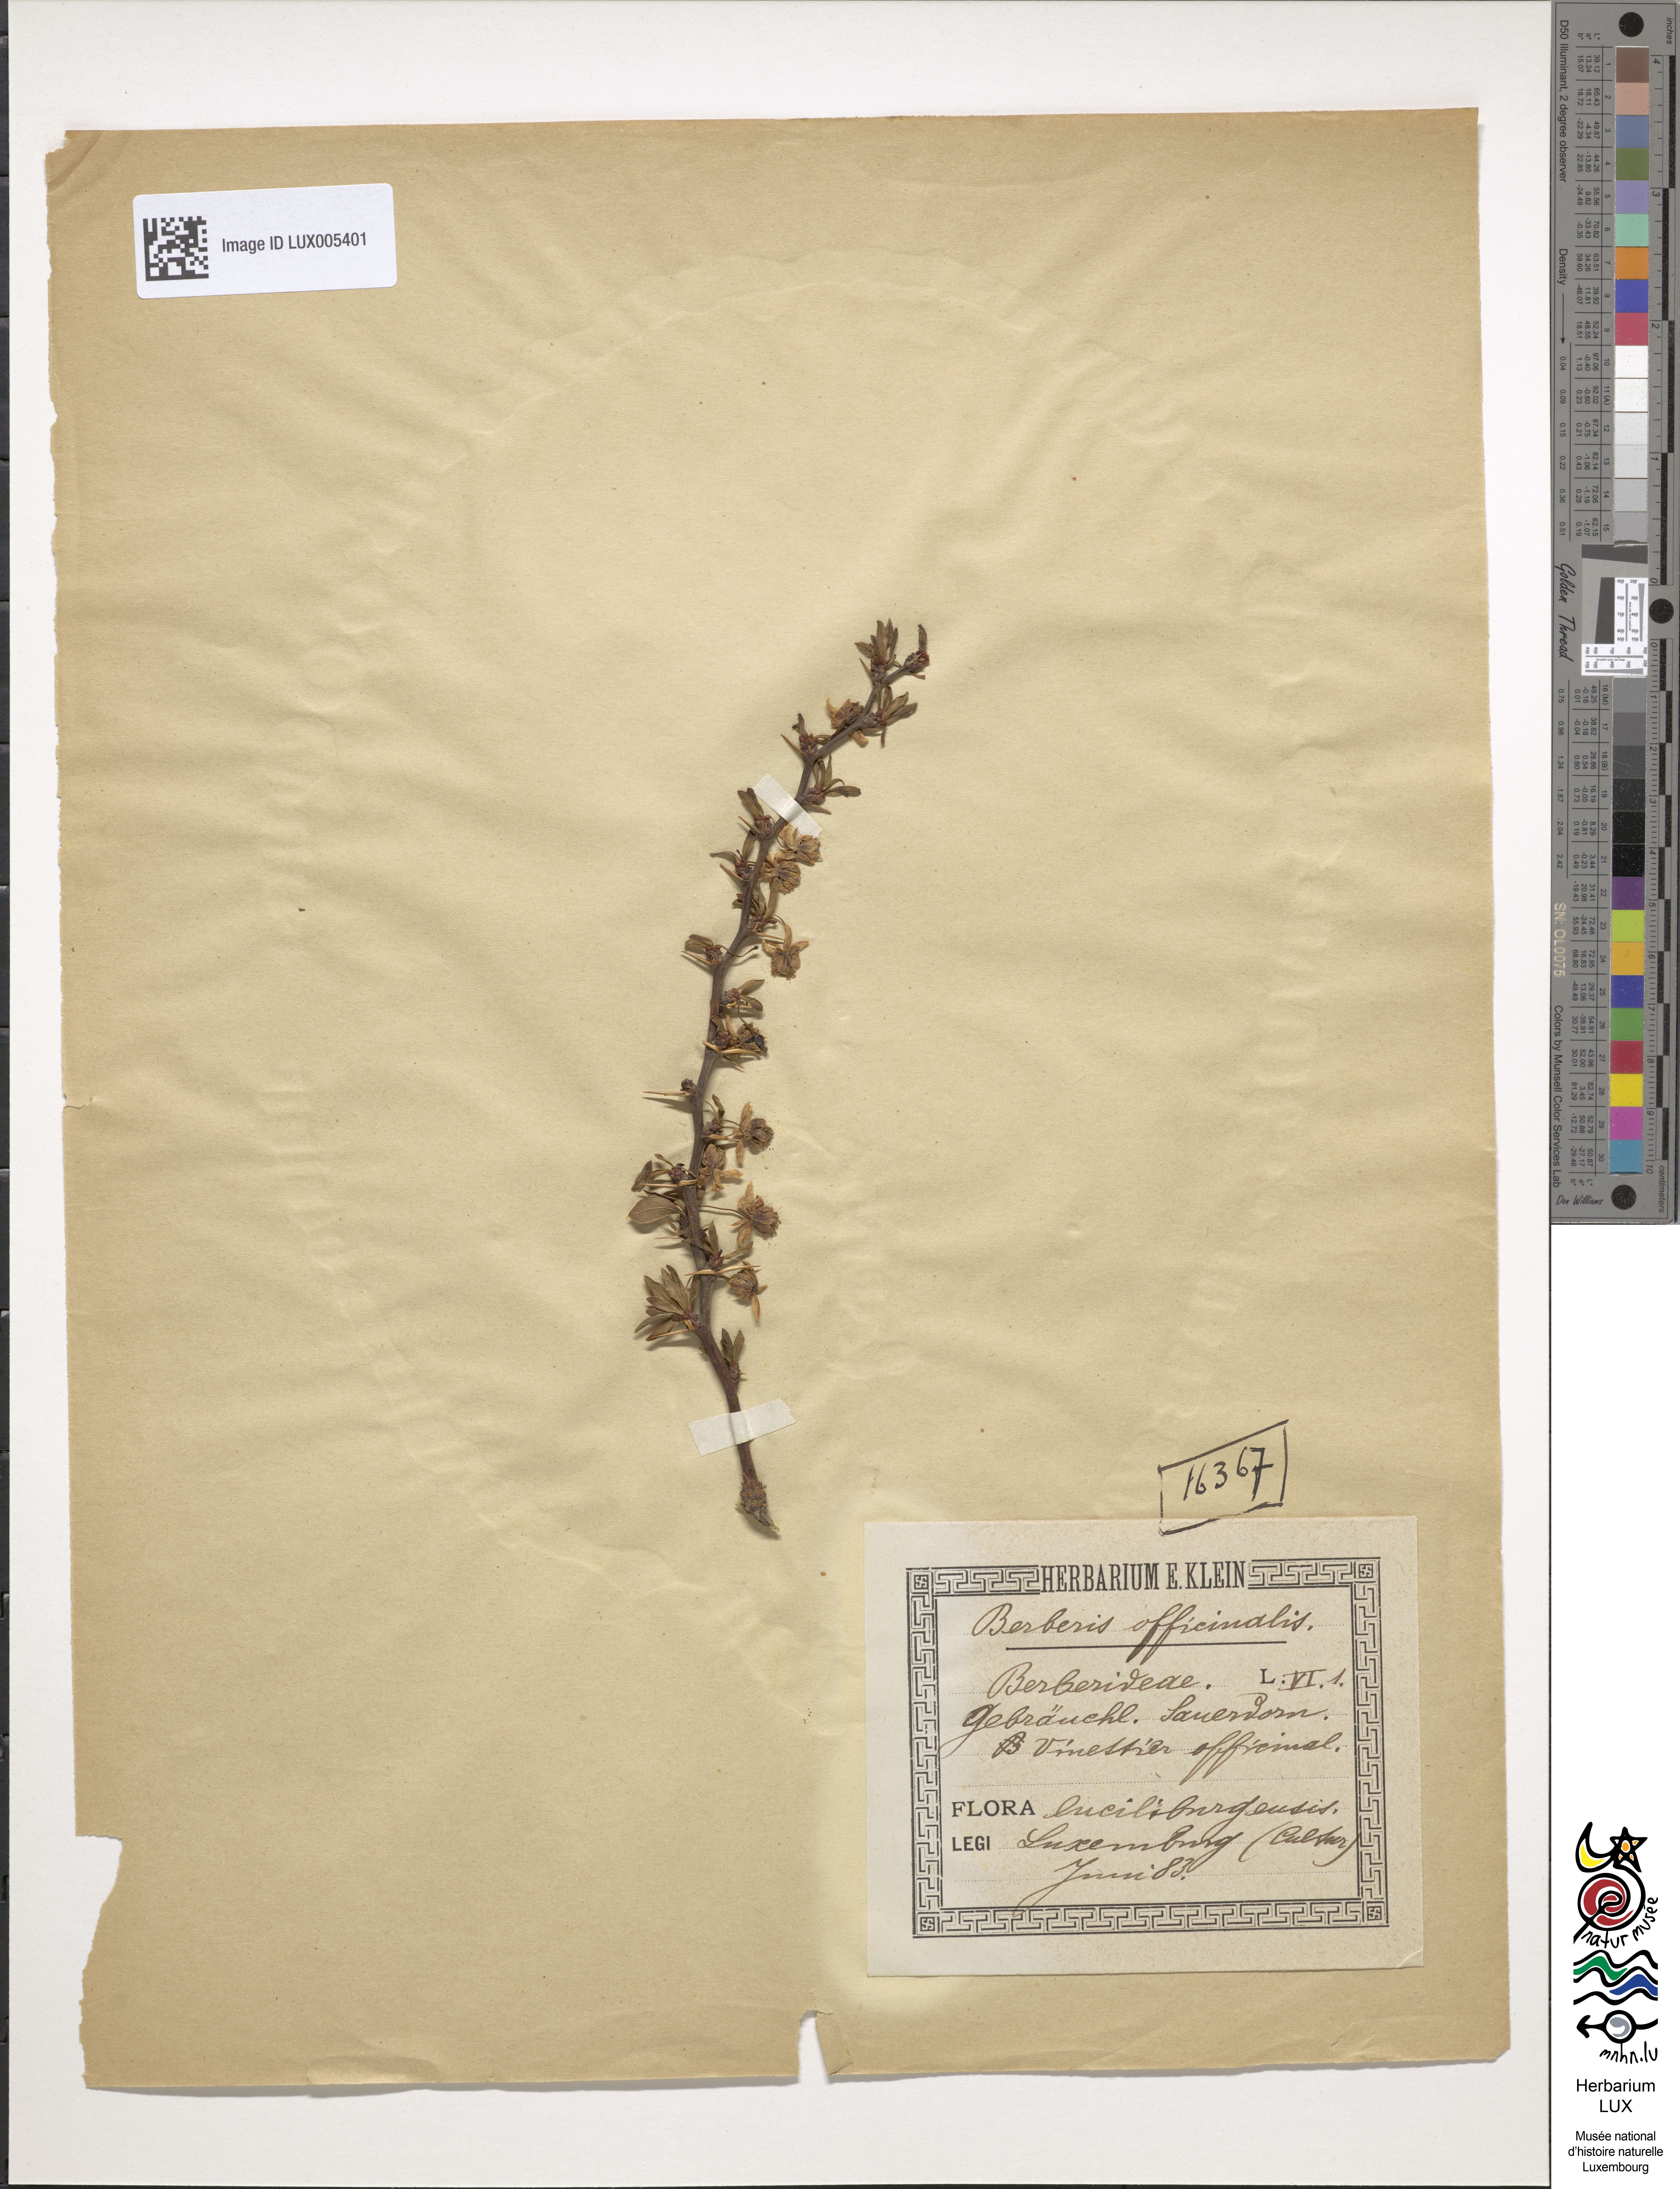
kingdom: Plantae
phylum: Tracheophyta
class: Magnoliopsida
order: Ranunculales
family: Berberidaceae
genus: Berberis
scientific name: Berberis
